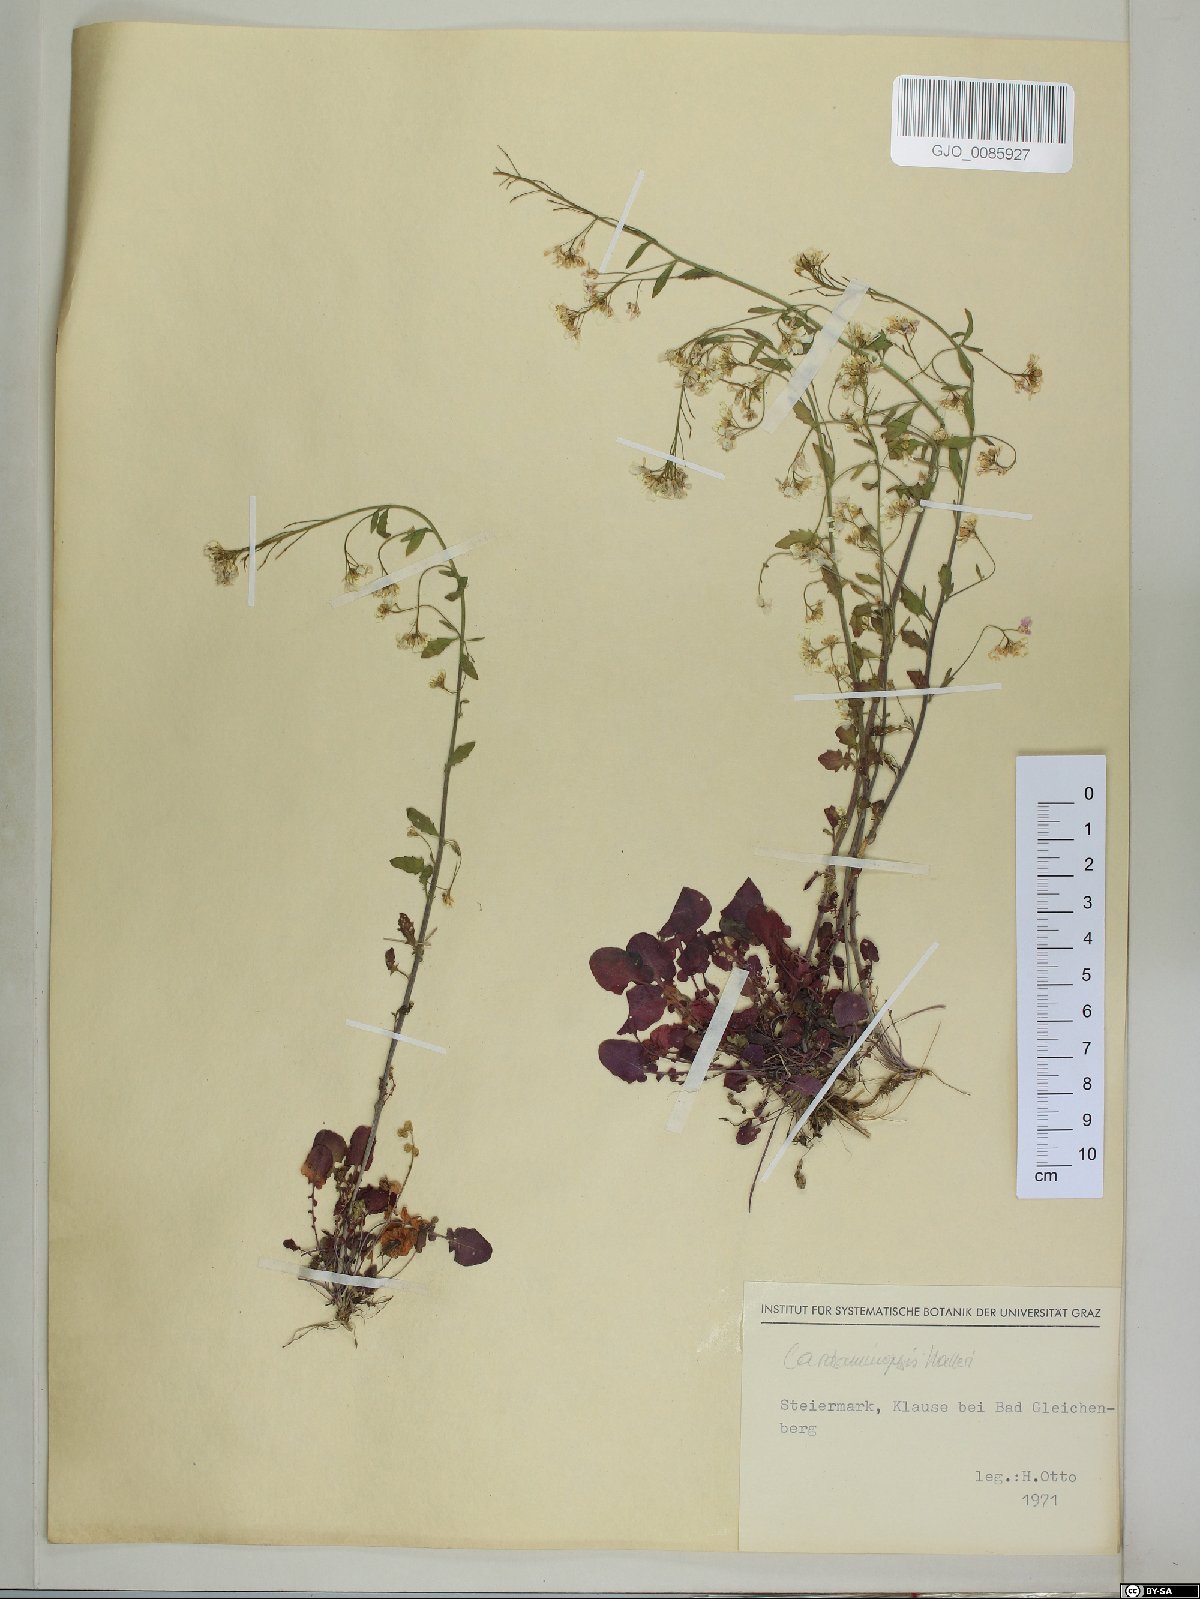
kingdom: Plantae
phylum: Tracheophyta
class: Magnoliopsida
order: Brassicales
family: Brassicaceae
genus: Arabidopsis
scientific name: Arabidopsis halleri
